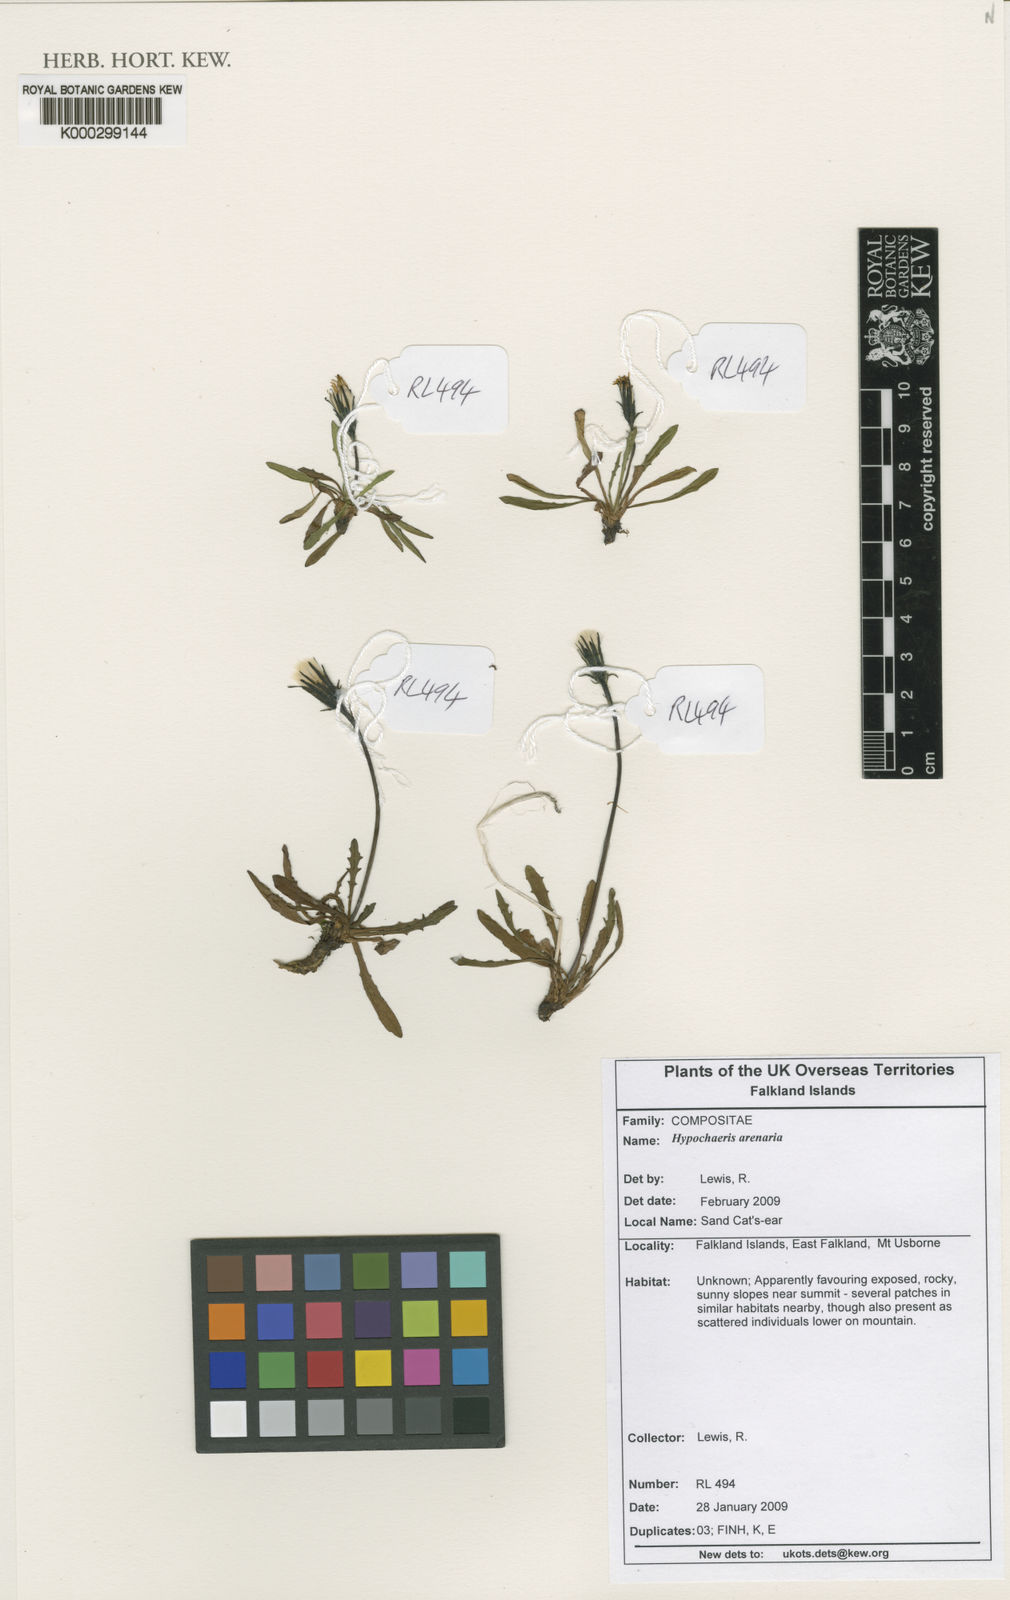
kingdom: Plantae
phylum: Tracheophyta
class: Magnoliopsida
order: Asterales
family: Asteraceae
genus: Hypochaeris
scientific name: Hypochaeris arenaria
